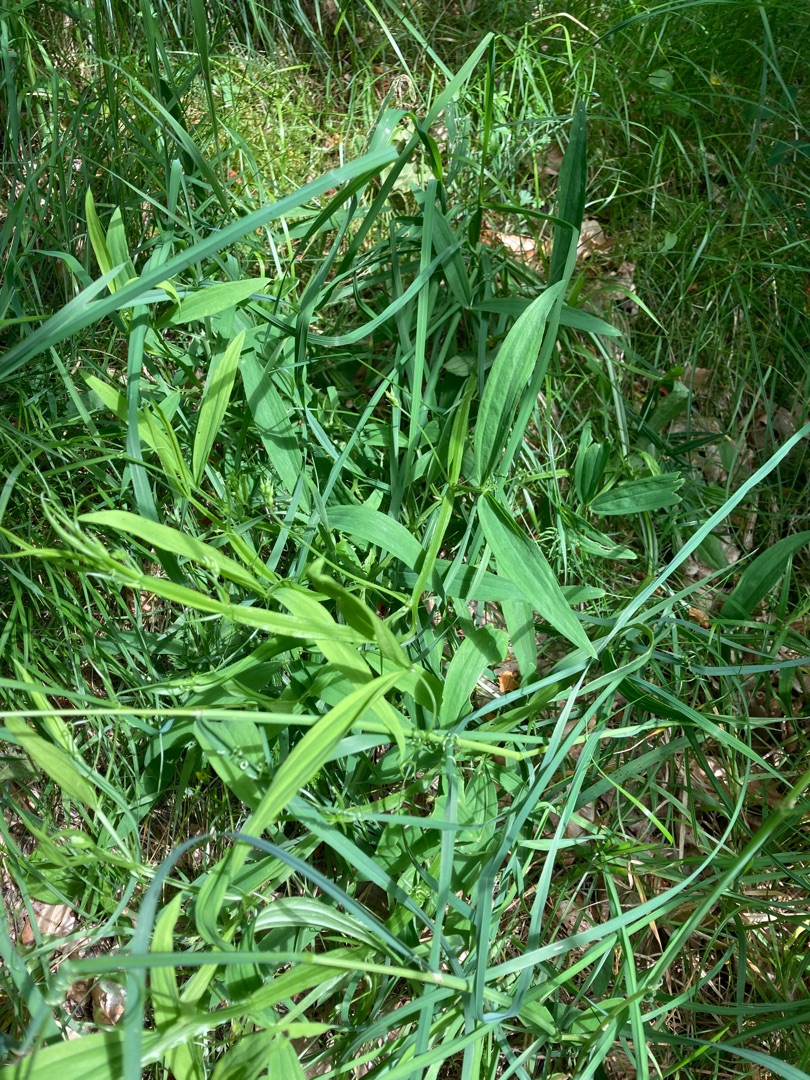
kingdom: Plantae
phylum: Tracheophyta
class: Magnoliopsida
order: Fabales
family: Fabaceae
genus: Lathyrus
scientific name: Lathyrus sylvestris
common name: Skov-fladbælg
